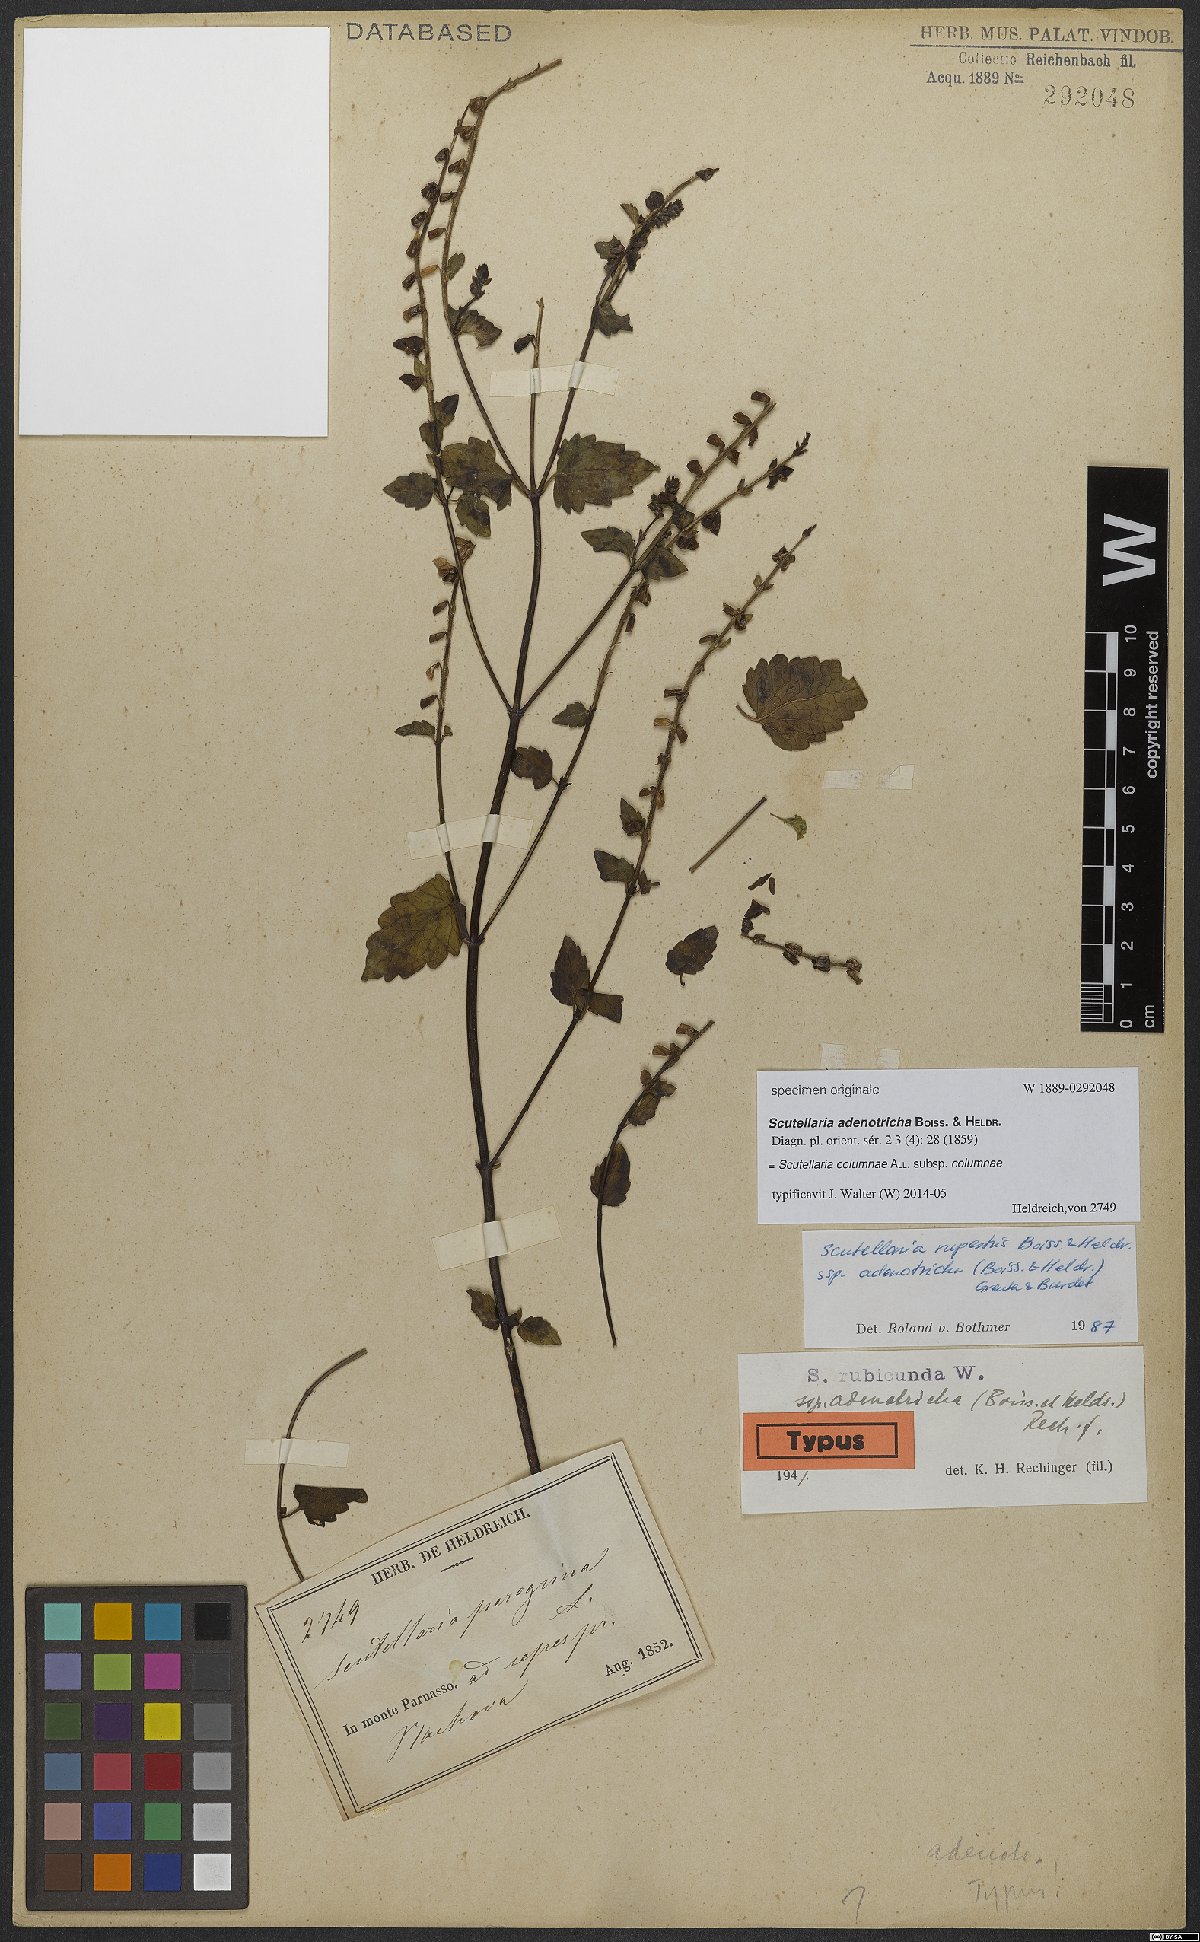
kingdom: Plantae
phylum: Tracheophyta
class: Magnoliopsida
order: Lamiales
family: Lamiaceae
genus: Scutellaria
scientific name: Scutellaria columnae
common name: Large skullcap
